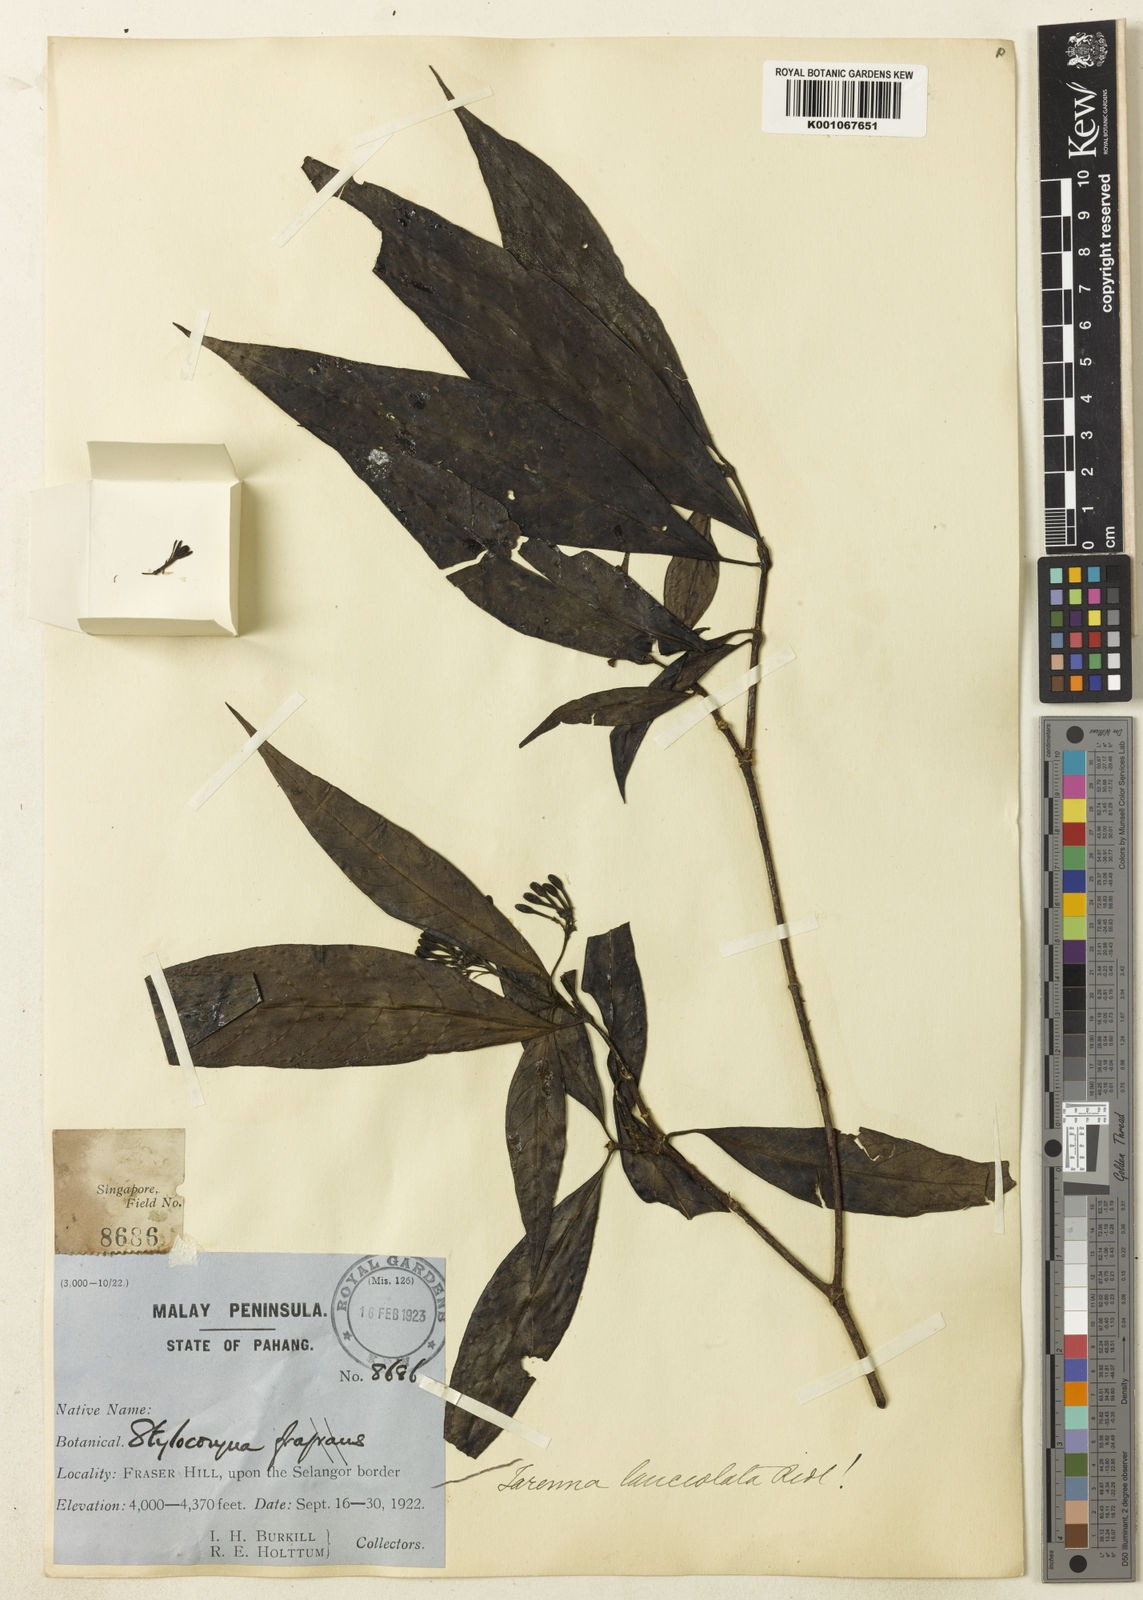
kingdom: Plantae
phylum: Tracheophyta
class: Magnoliopsida
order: Gentianales
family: Rubiaceae
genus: Tarenna
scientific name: Tarenna adpressa
